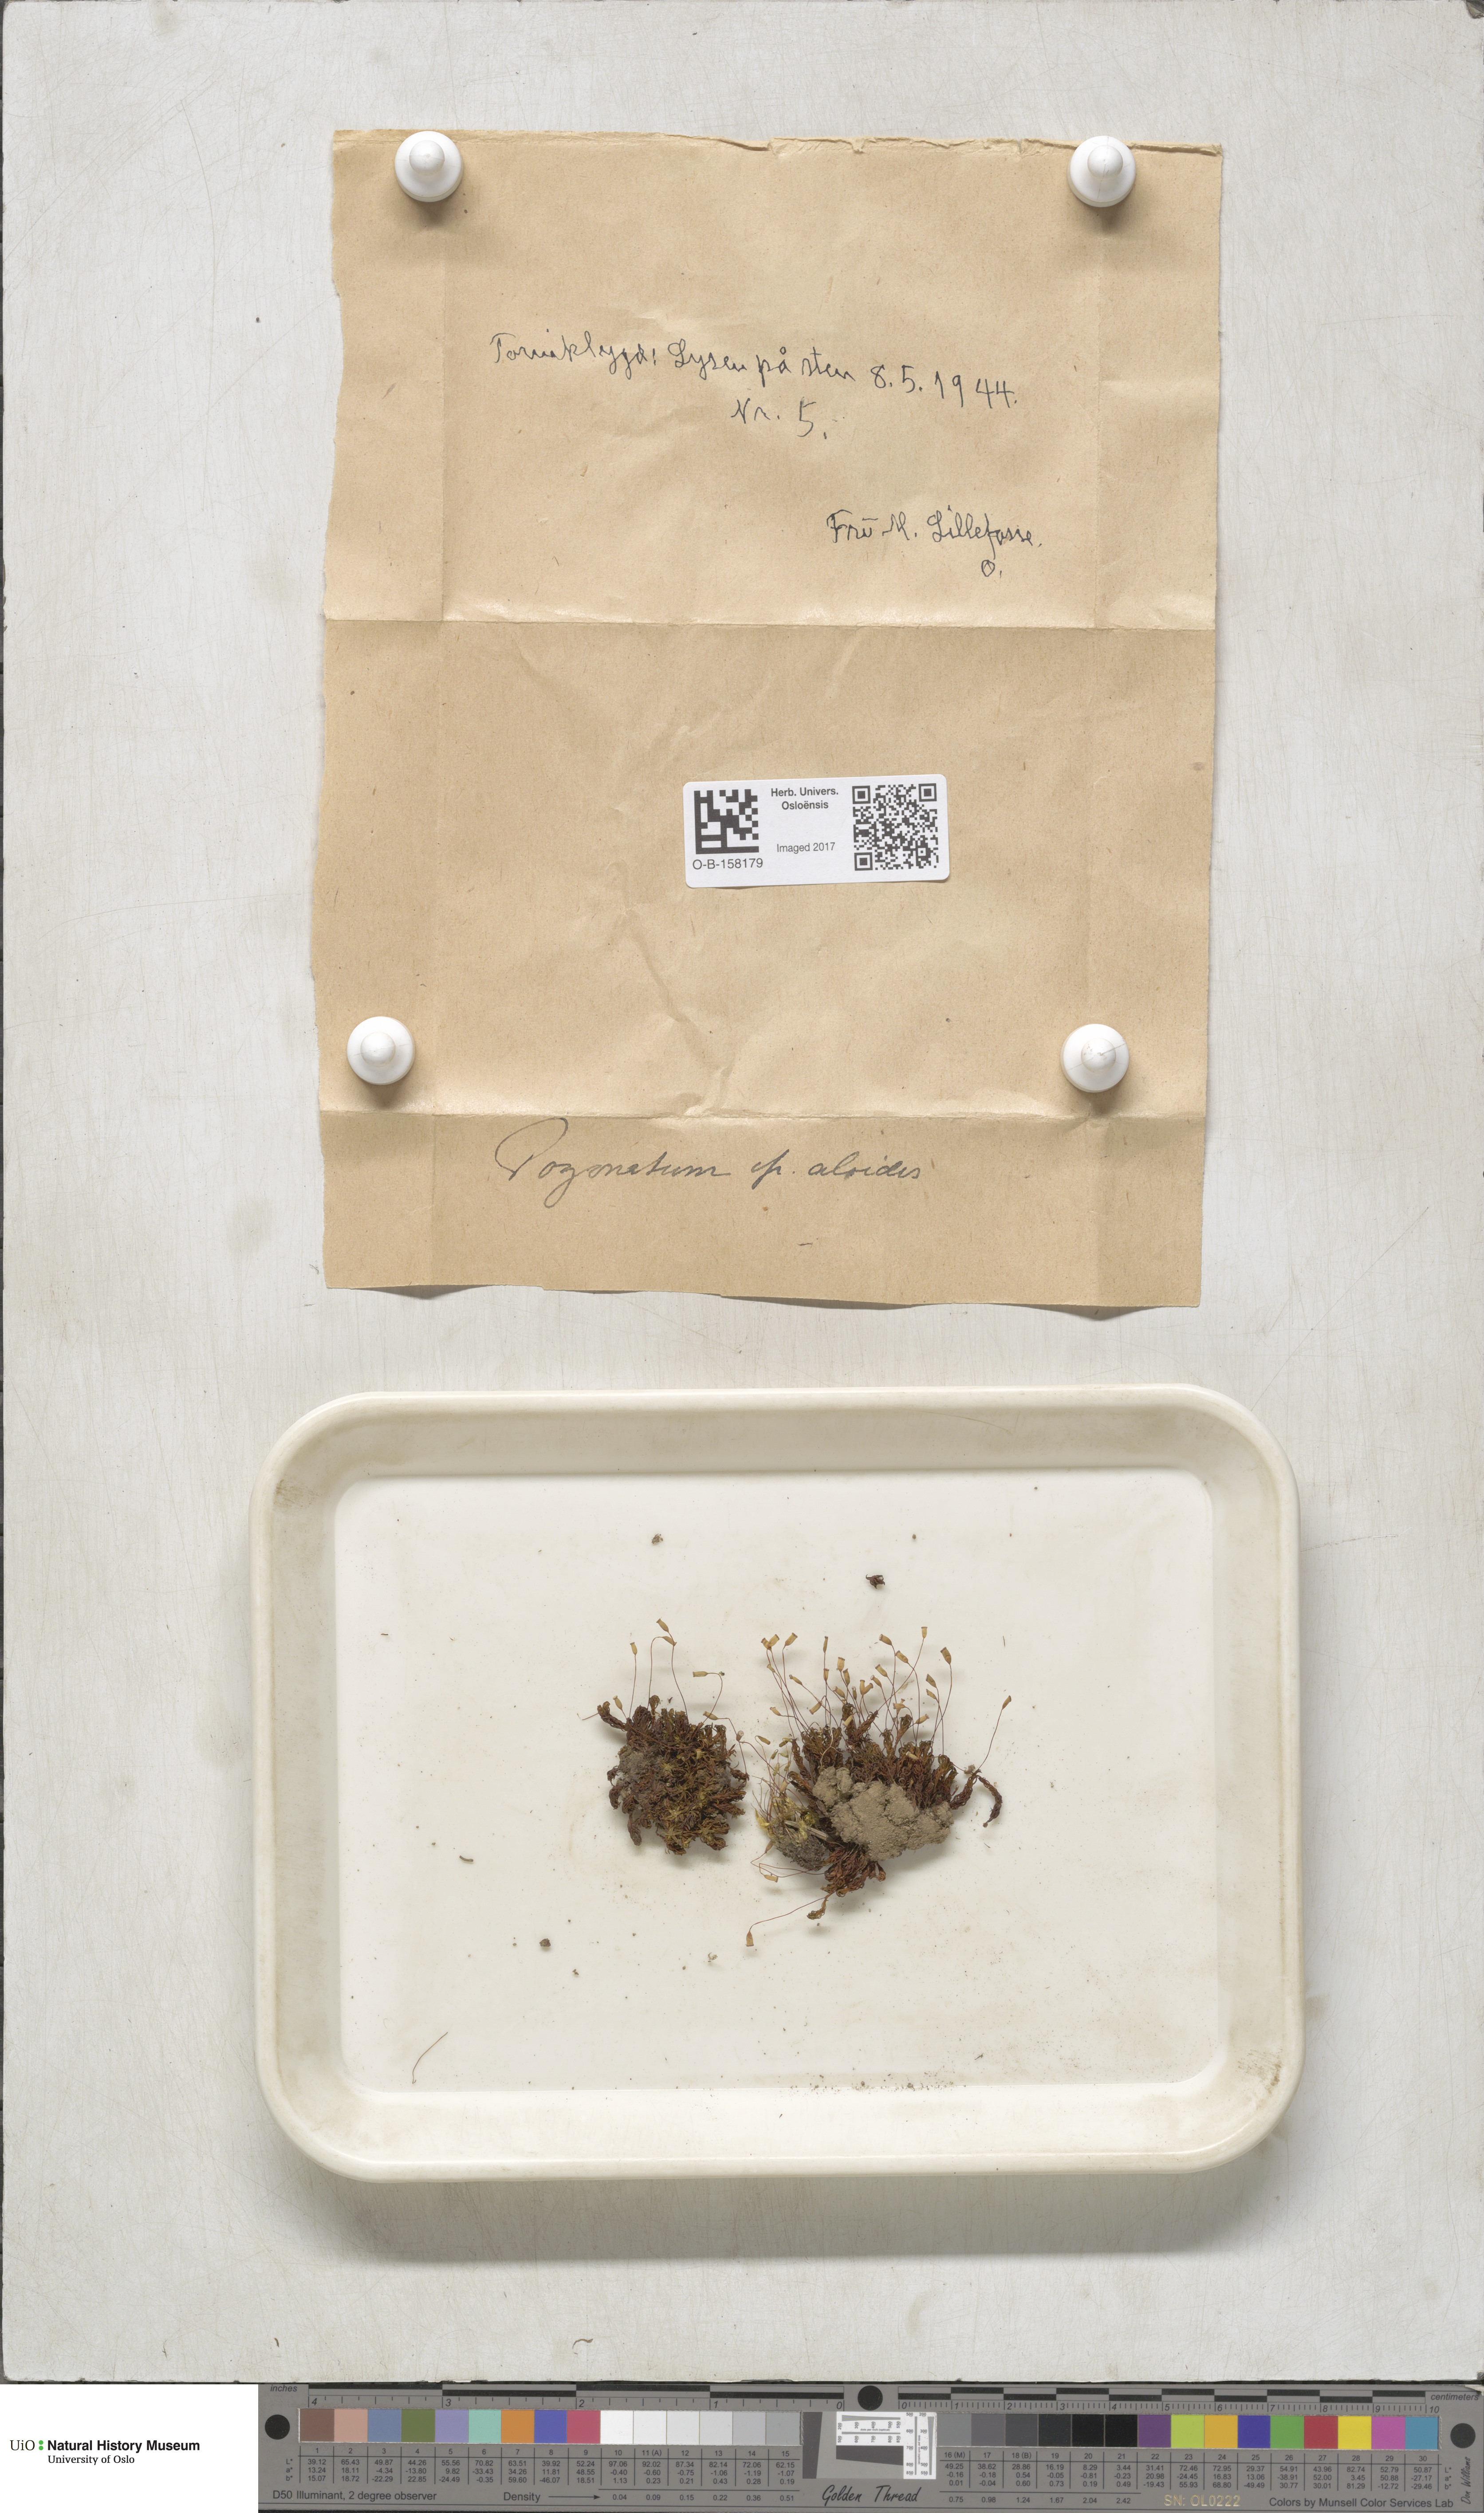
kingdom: Plantae
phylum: Bryophyta
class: Polytrichopsida
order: Polytrichales
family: Polytrichaceae
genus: Pogonatum
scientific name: Pogonatum aloides
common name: Aloe haircap
